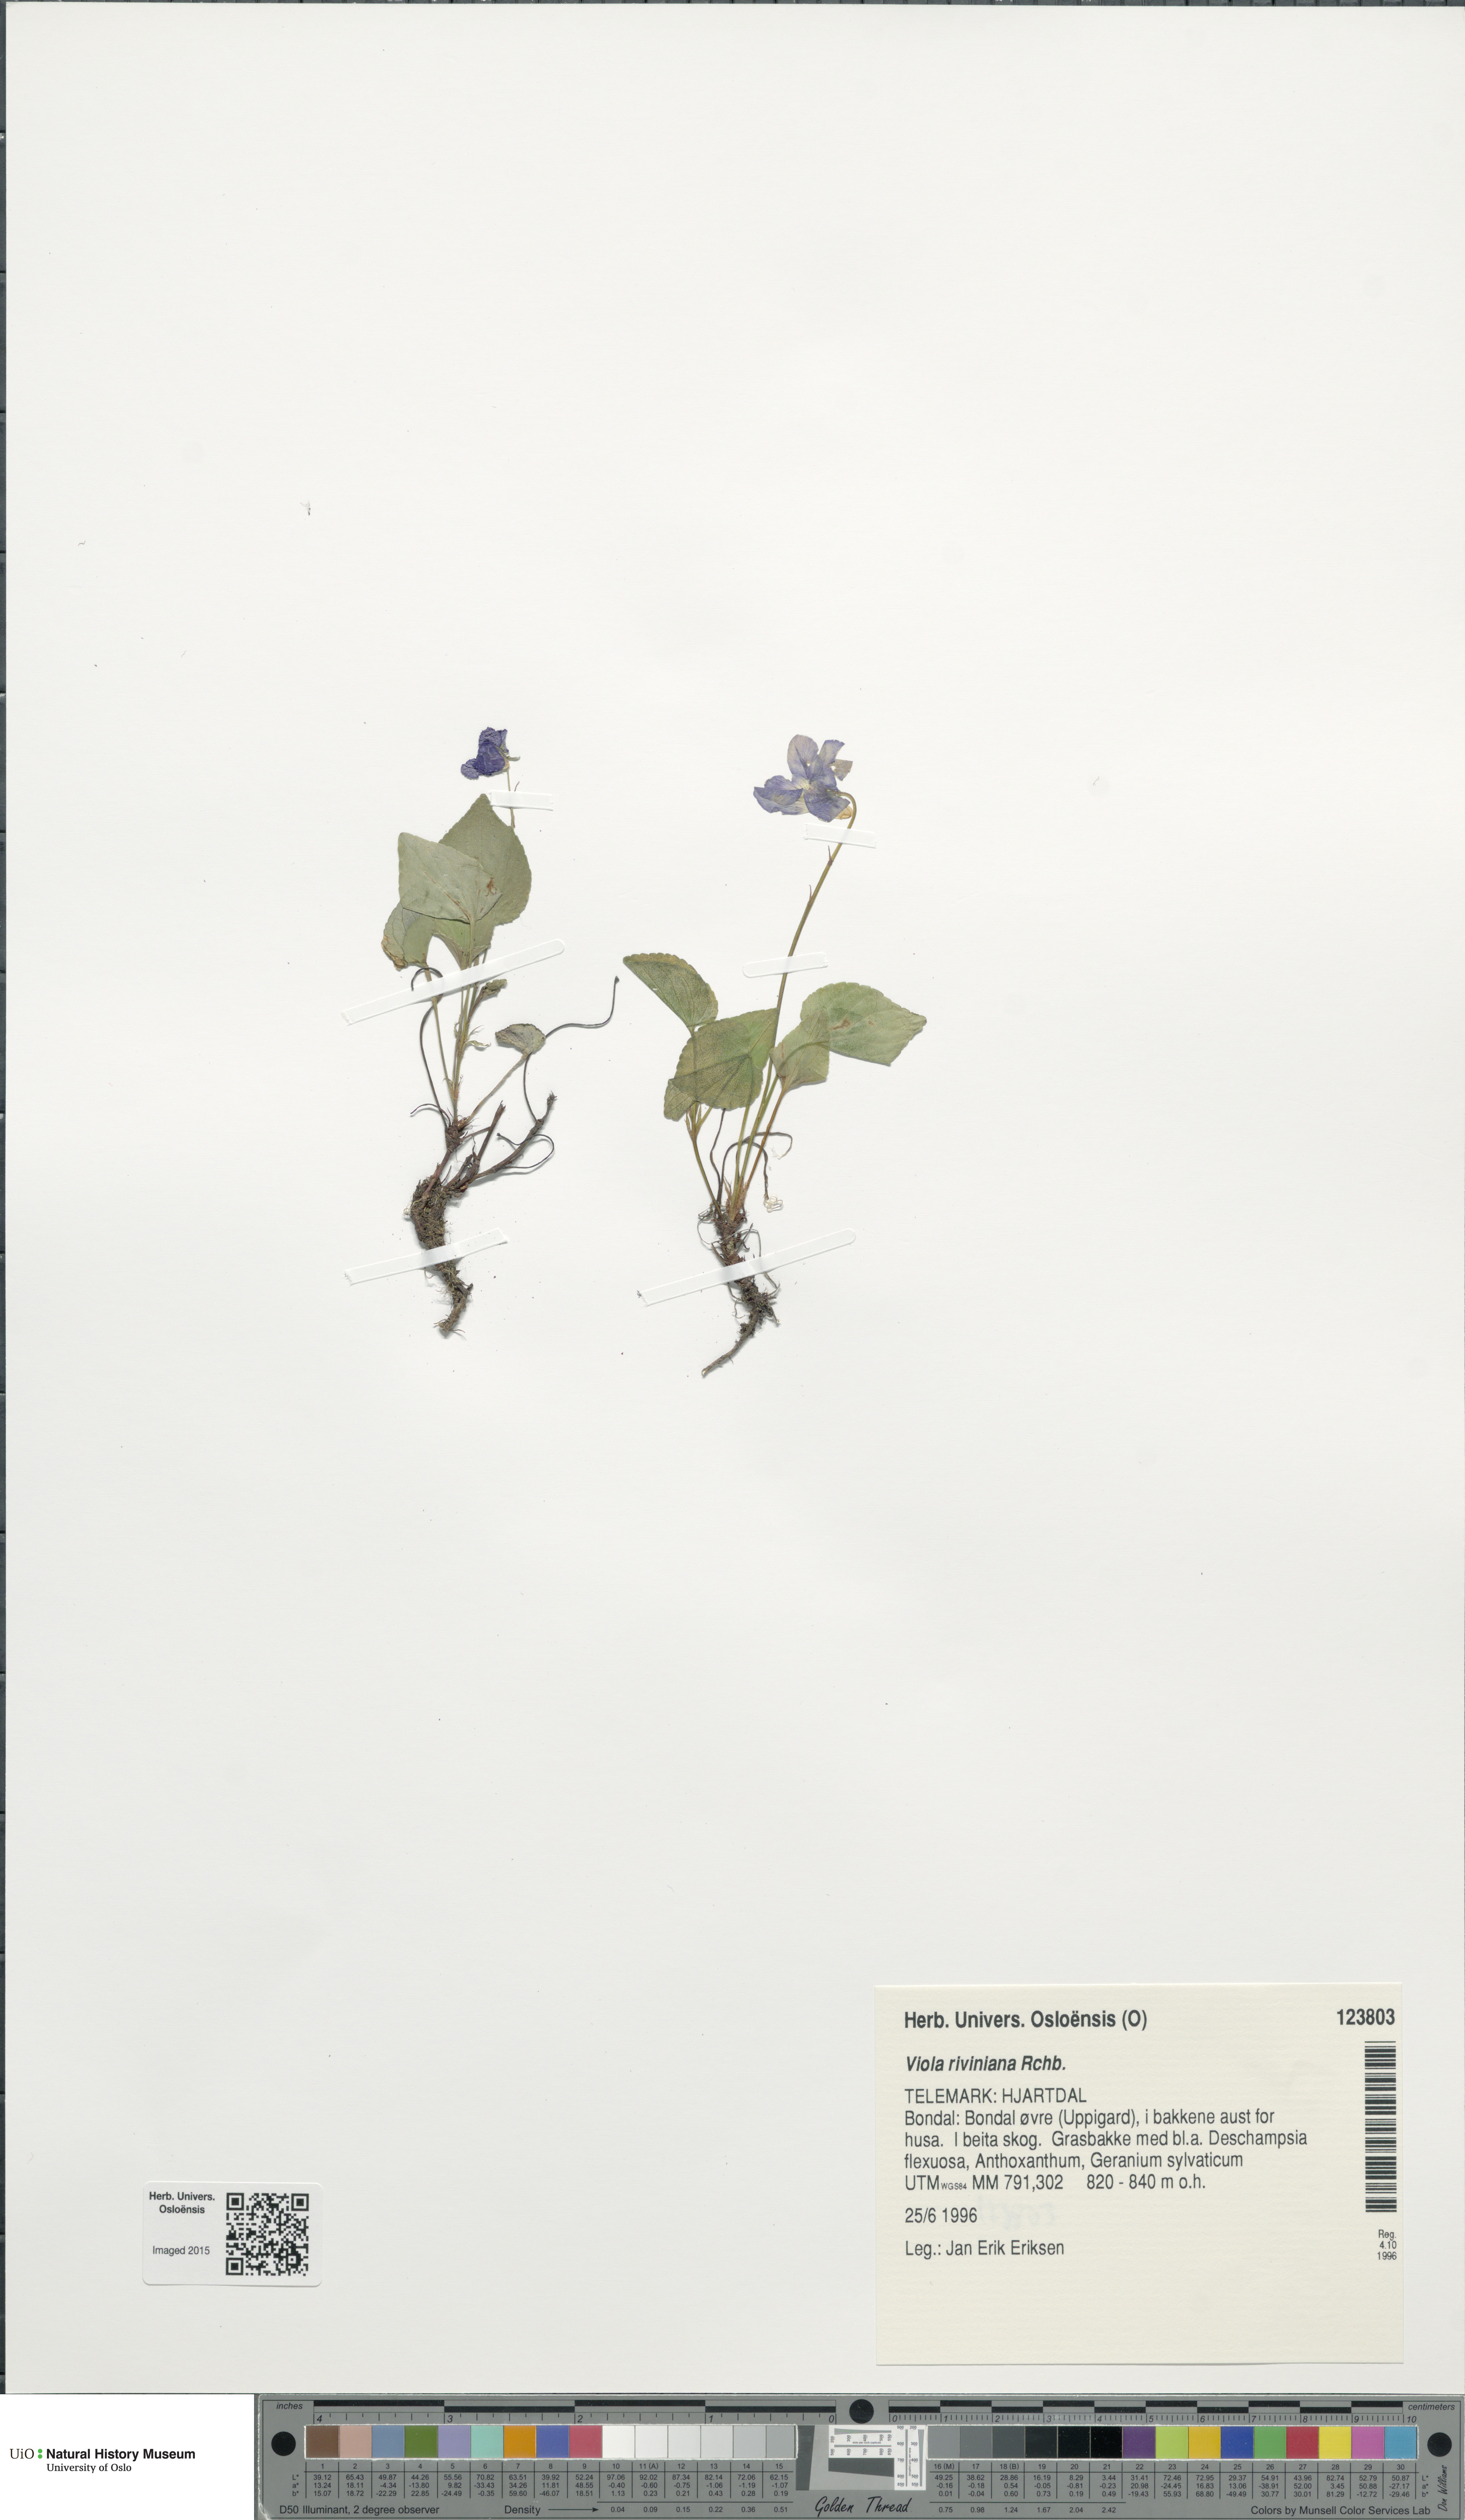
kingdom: Plantae
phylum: Tracheophyta
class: Magnoliopsida
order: Malpighiales
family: Violaceae
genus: Viola
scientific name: Viola riviniana
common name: Common dog-violet
